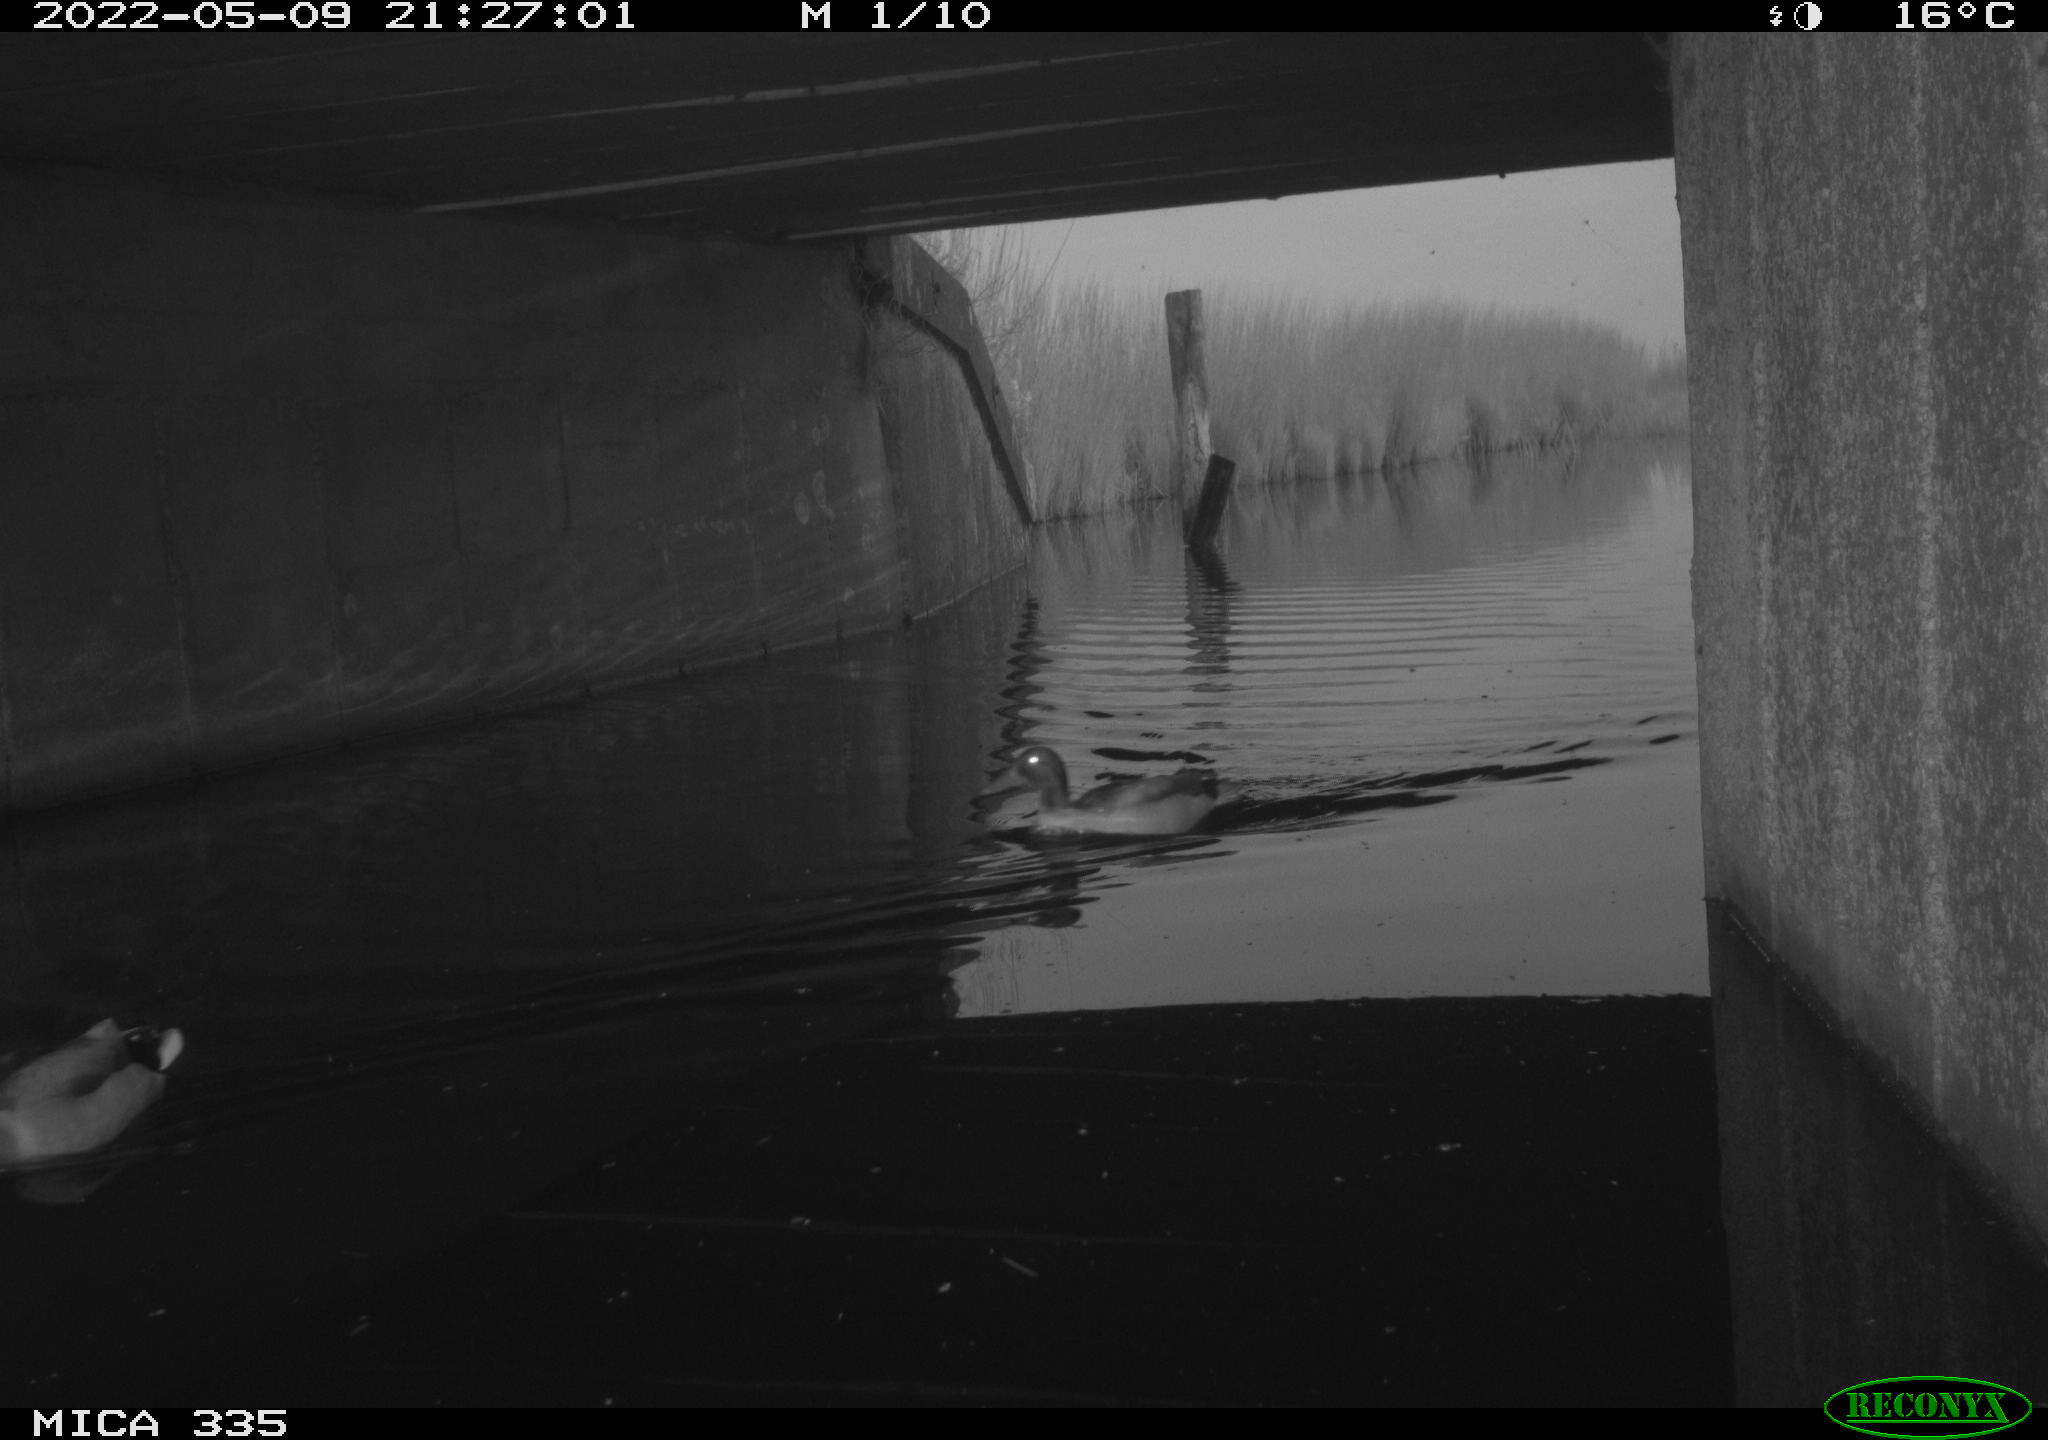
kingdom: Animalia
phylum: Chordata
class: Aves
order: Anseriformes
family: Anatidae
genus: Anas
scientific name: Anas platyrhynchos
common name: Mallard
